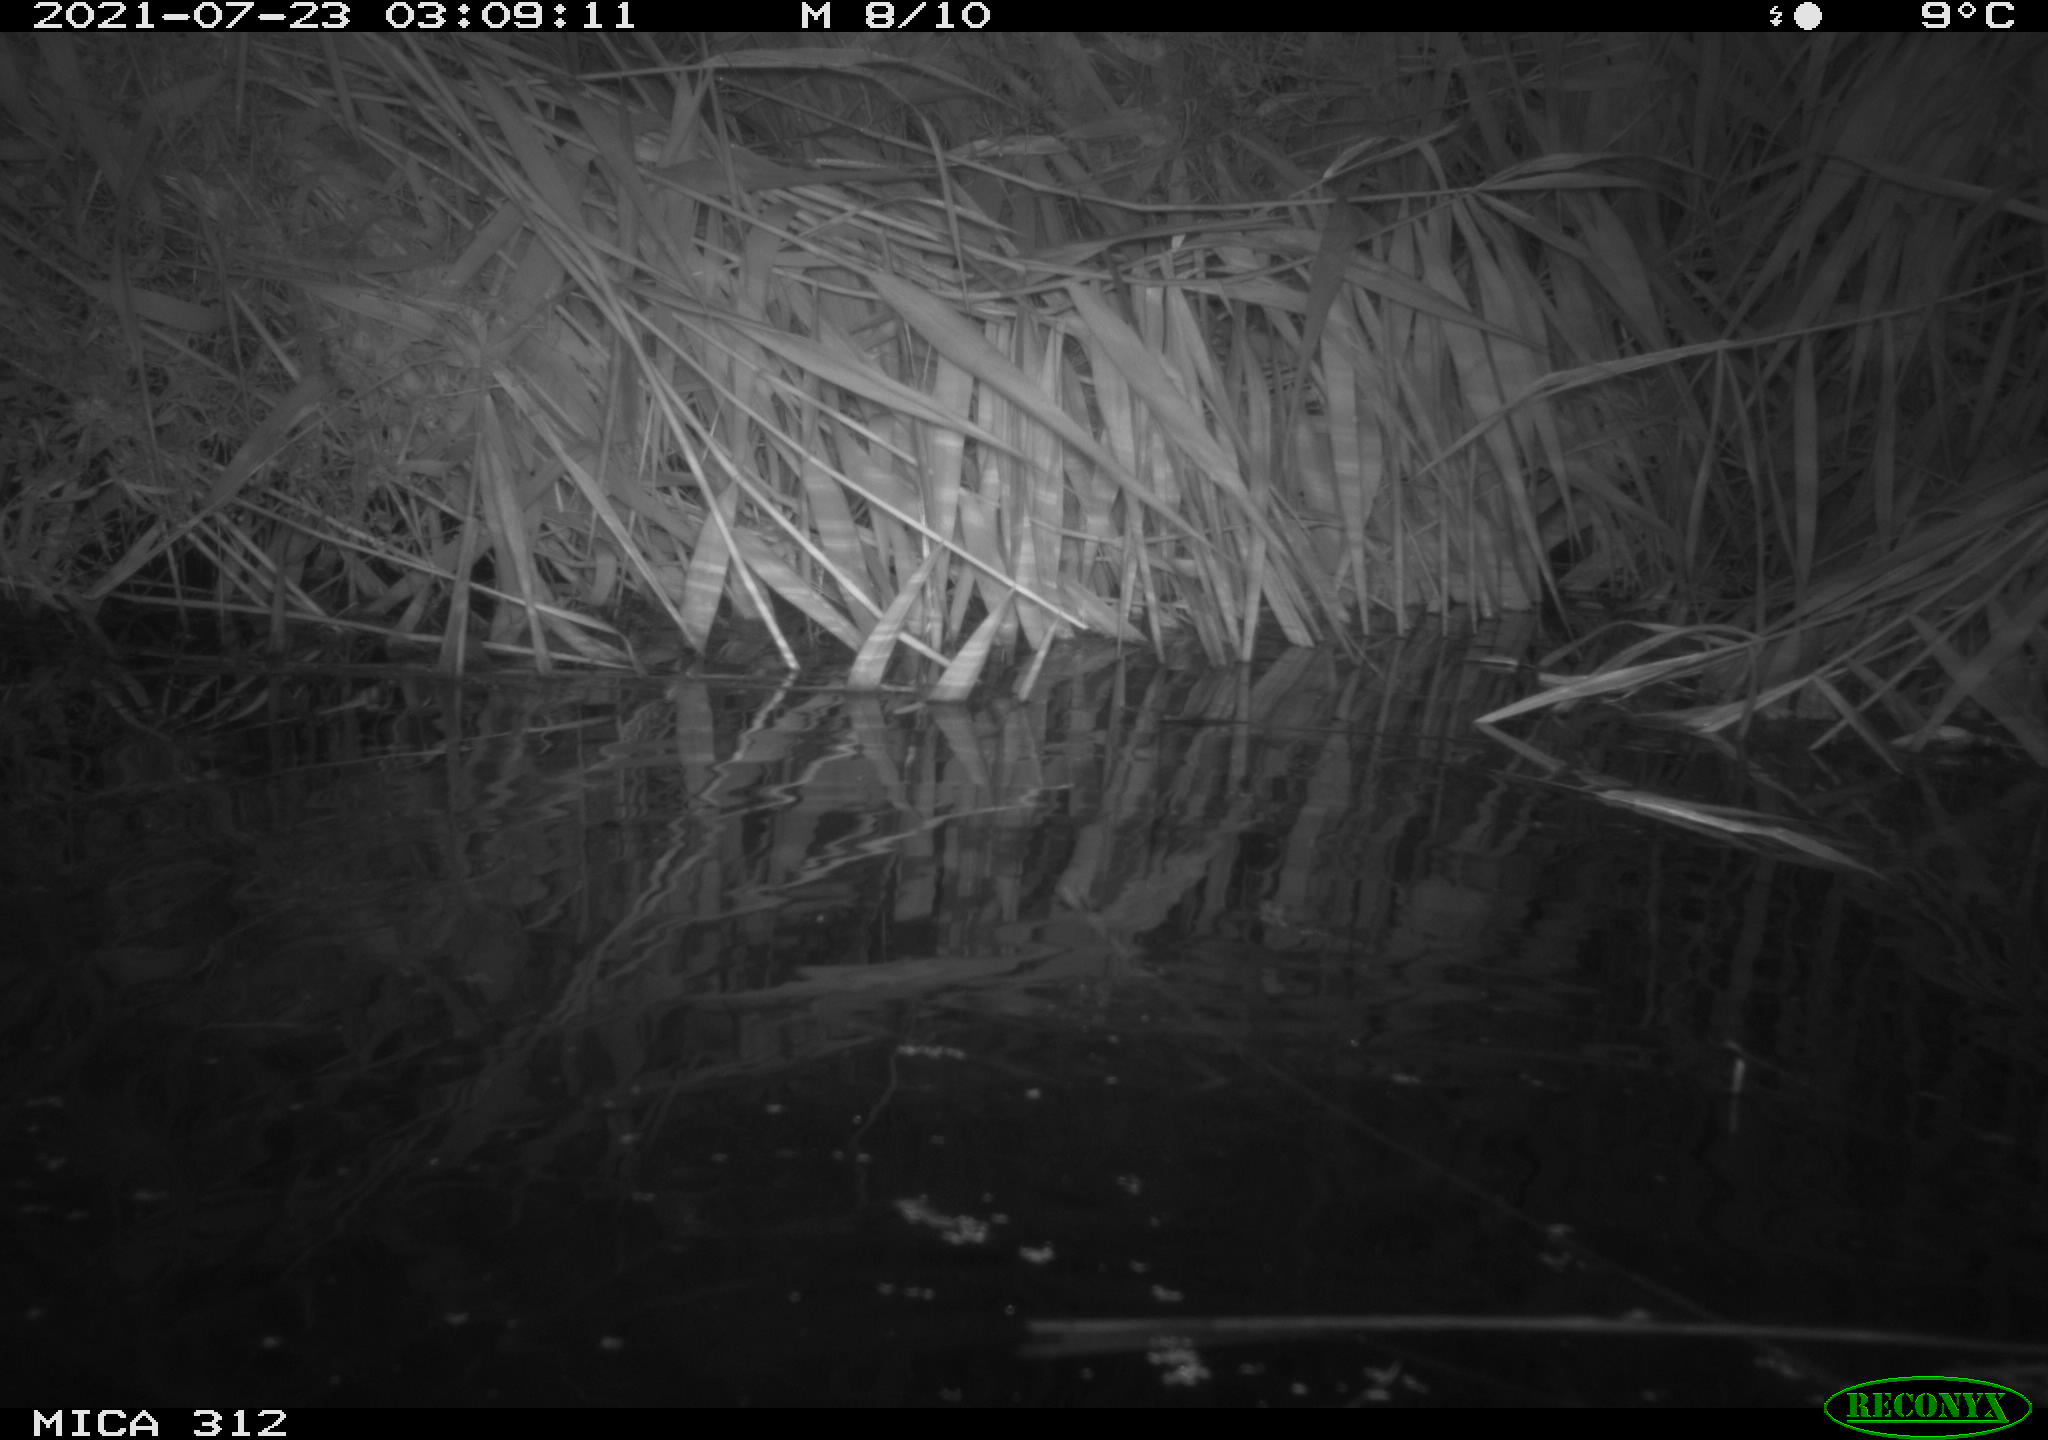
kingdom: Animalia
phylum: Chordata
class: Mammalia
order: Rodentia
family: Muridae
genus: Rattus
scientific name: Rattus norvegicus
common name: Brown rat
